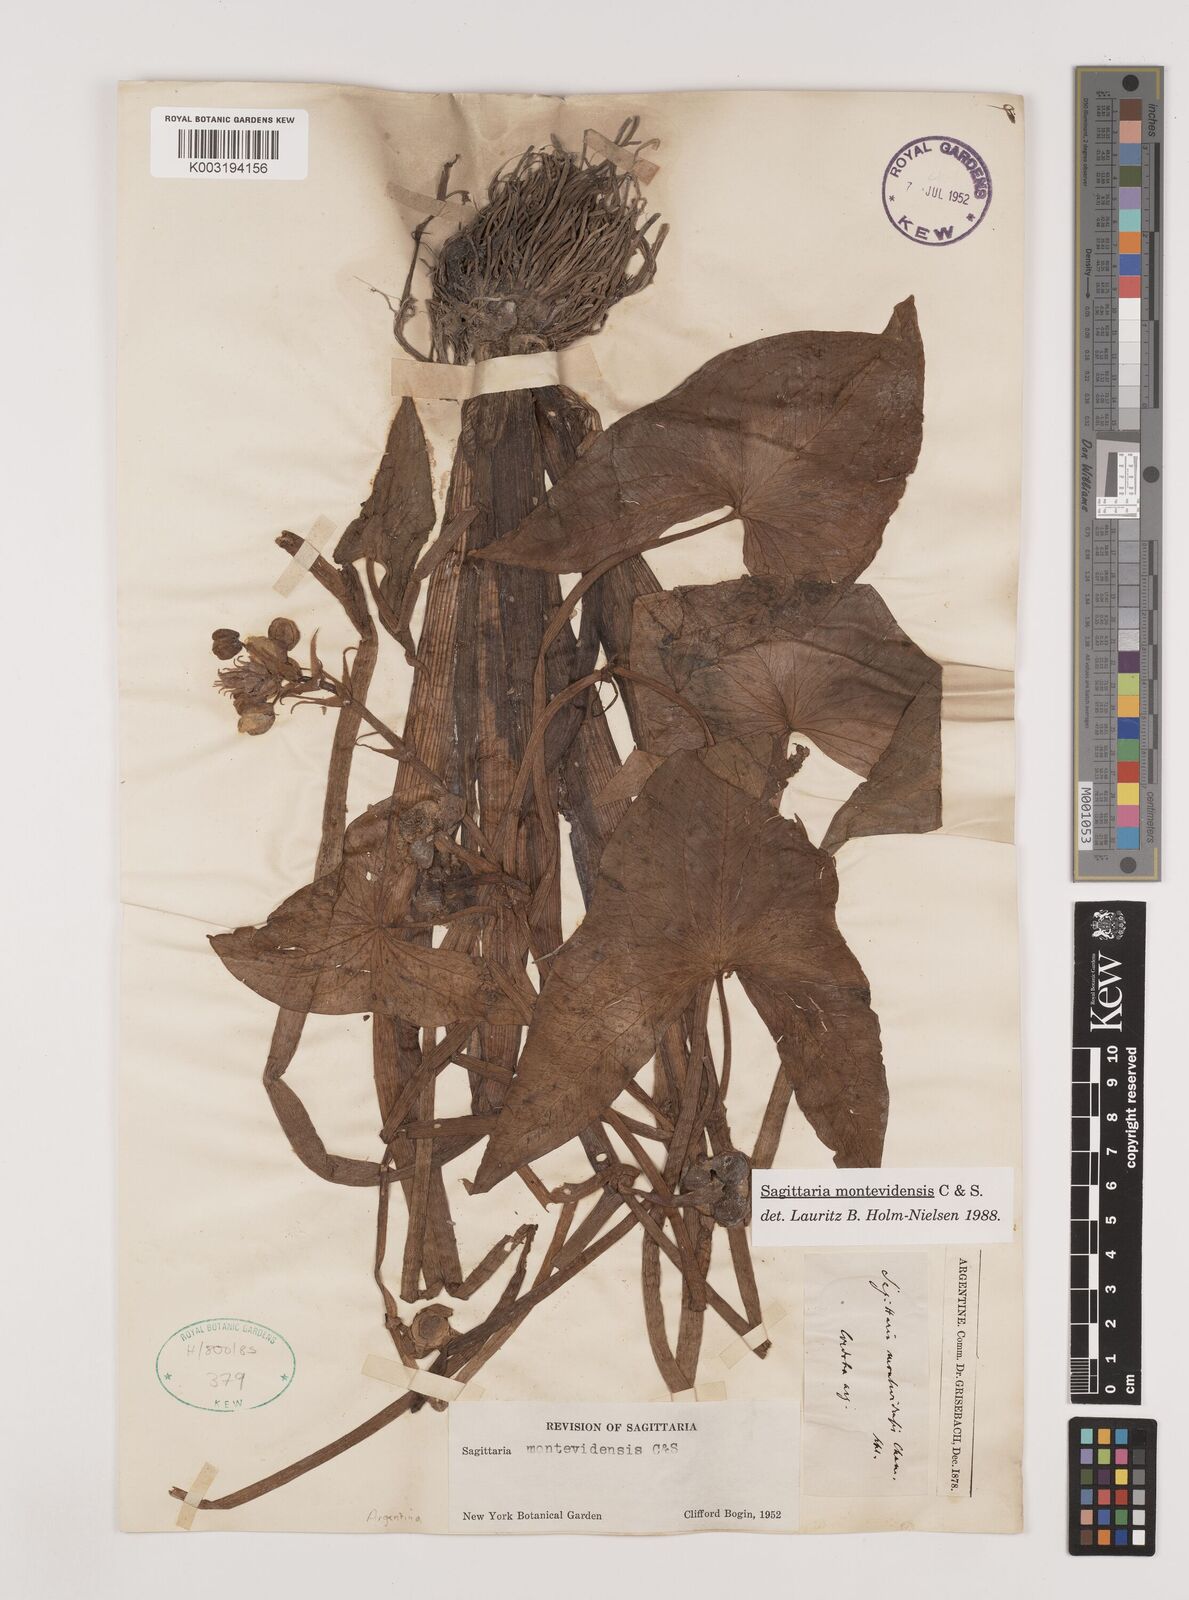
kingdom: Plantae
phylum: Tracheophyta
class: Liliopsida
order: Alismatales
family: Alismataceae
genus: Sagittaria
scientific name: Sagittaria montevidensis
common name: Giant arrowhead
